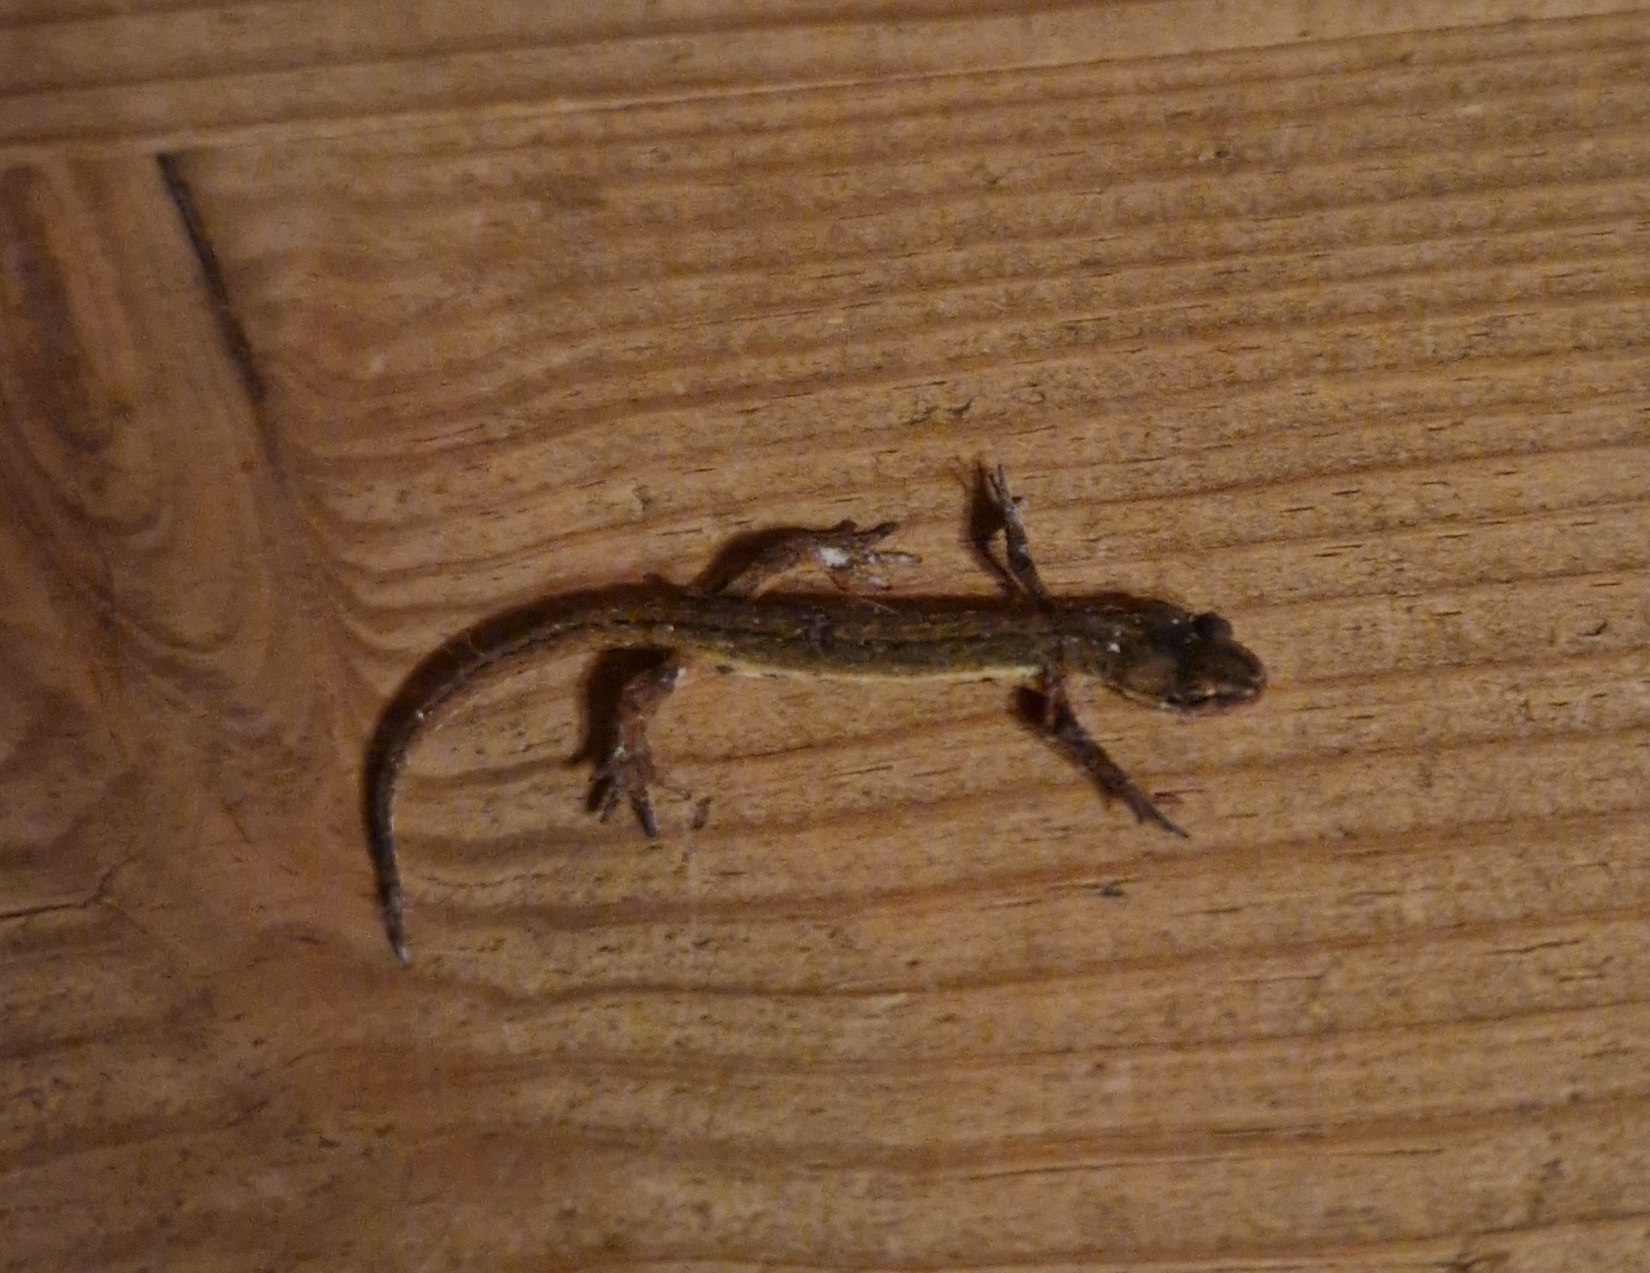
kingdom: Animalia
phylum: Chordata
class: Amphibia
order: Caudata
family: Salamandridae
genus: Lissotriton
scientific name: Lissotriton vulgaris
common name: Lille vandsalamander
